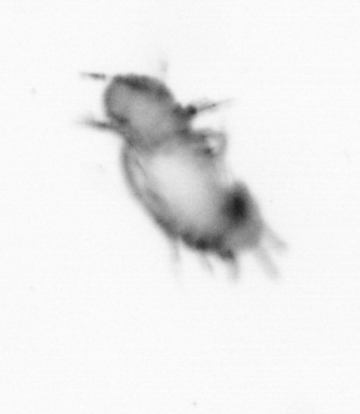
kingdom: Animalia
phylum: Annelida
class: Polychaeta
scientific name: Polychaeta
